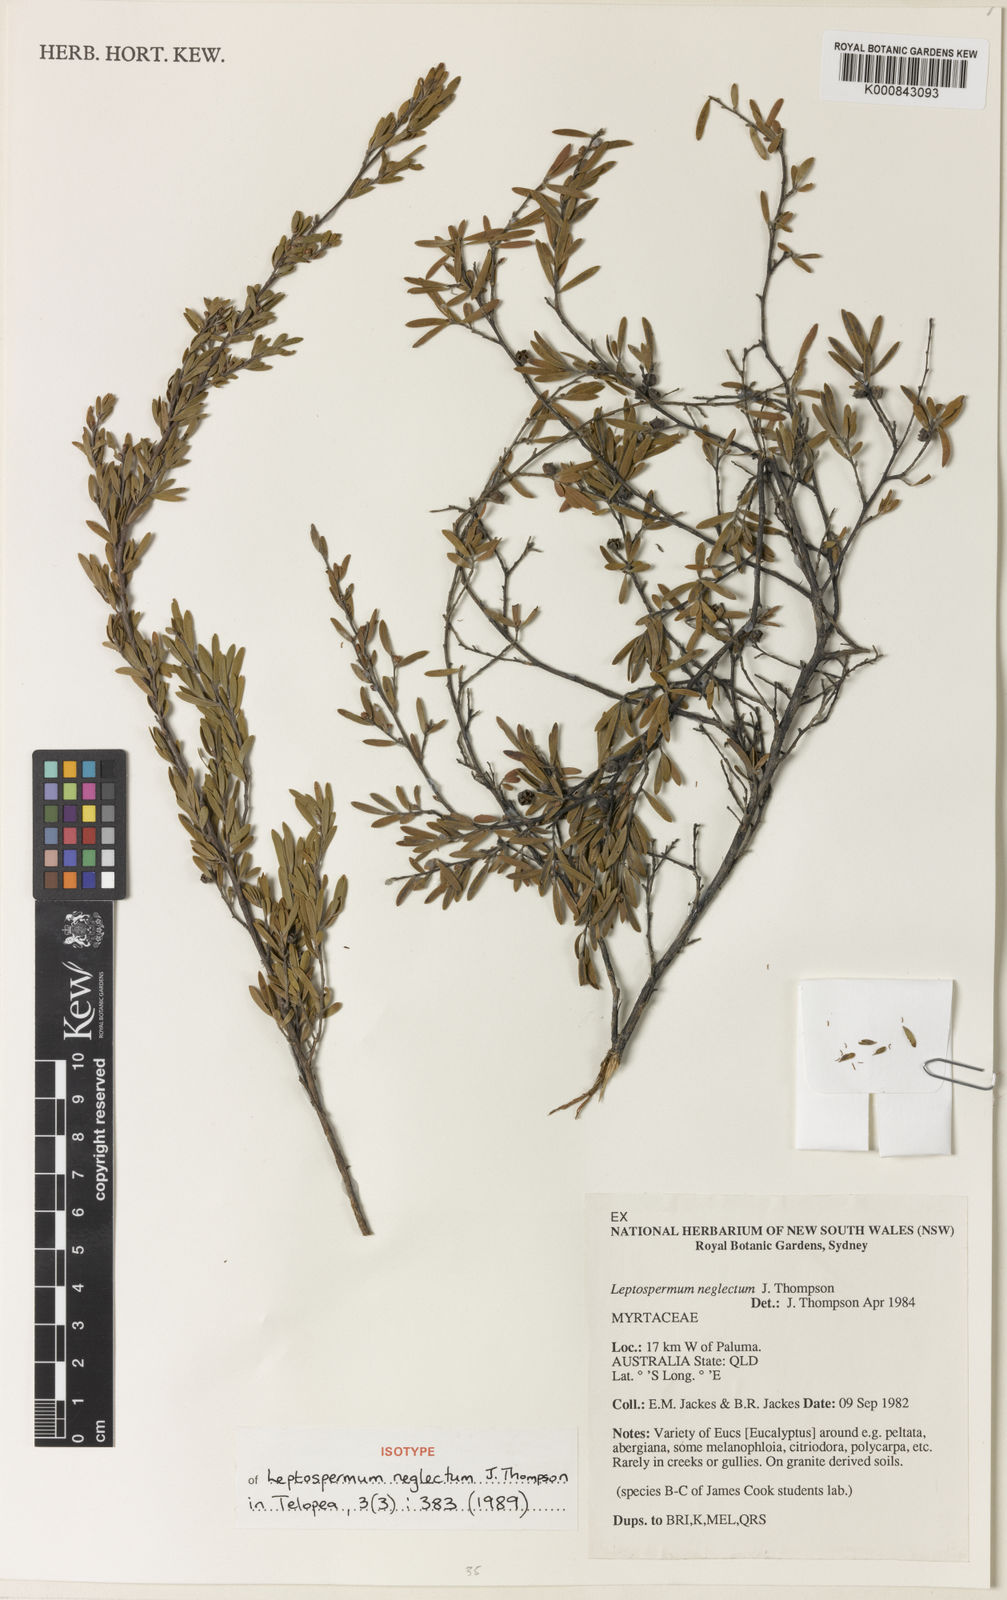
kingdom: Plantae
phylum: Tracheophyta
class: Magnoliopsida
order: Myrtales
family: Myrtaceae
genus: Leptospermum
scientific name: Leptospermum neglectum
